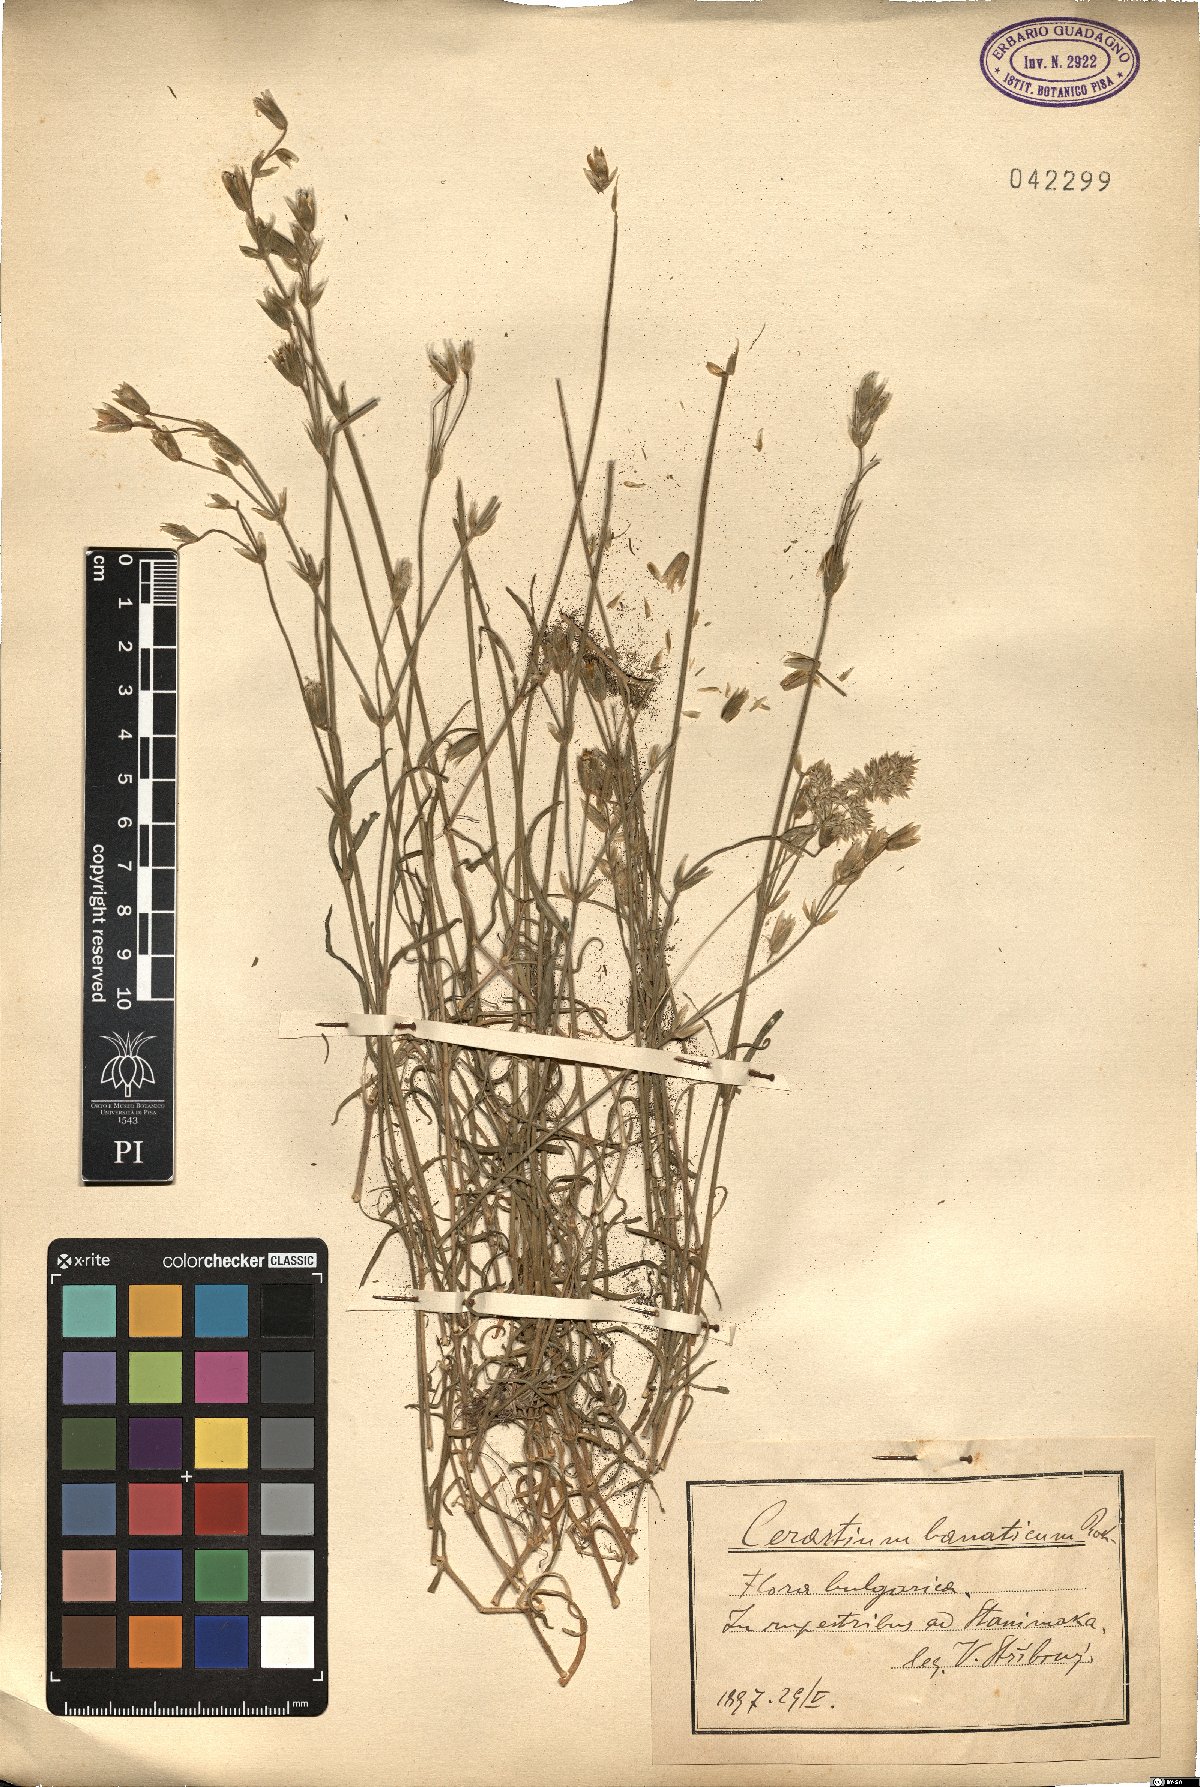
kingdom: Plantae
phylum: Tracheophyta
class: Magnoliopsida
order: Caryophyllales
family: Caryophyllaceae
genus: Cerastium
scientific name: Cerastium banaticum
